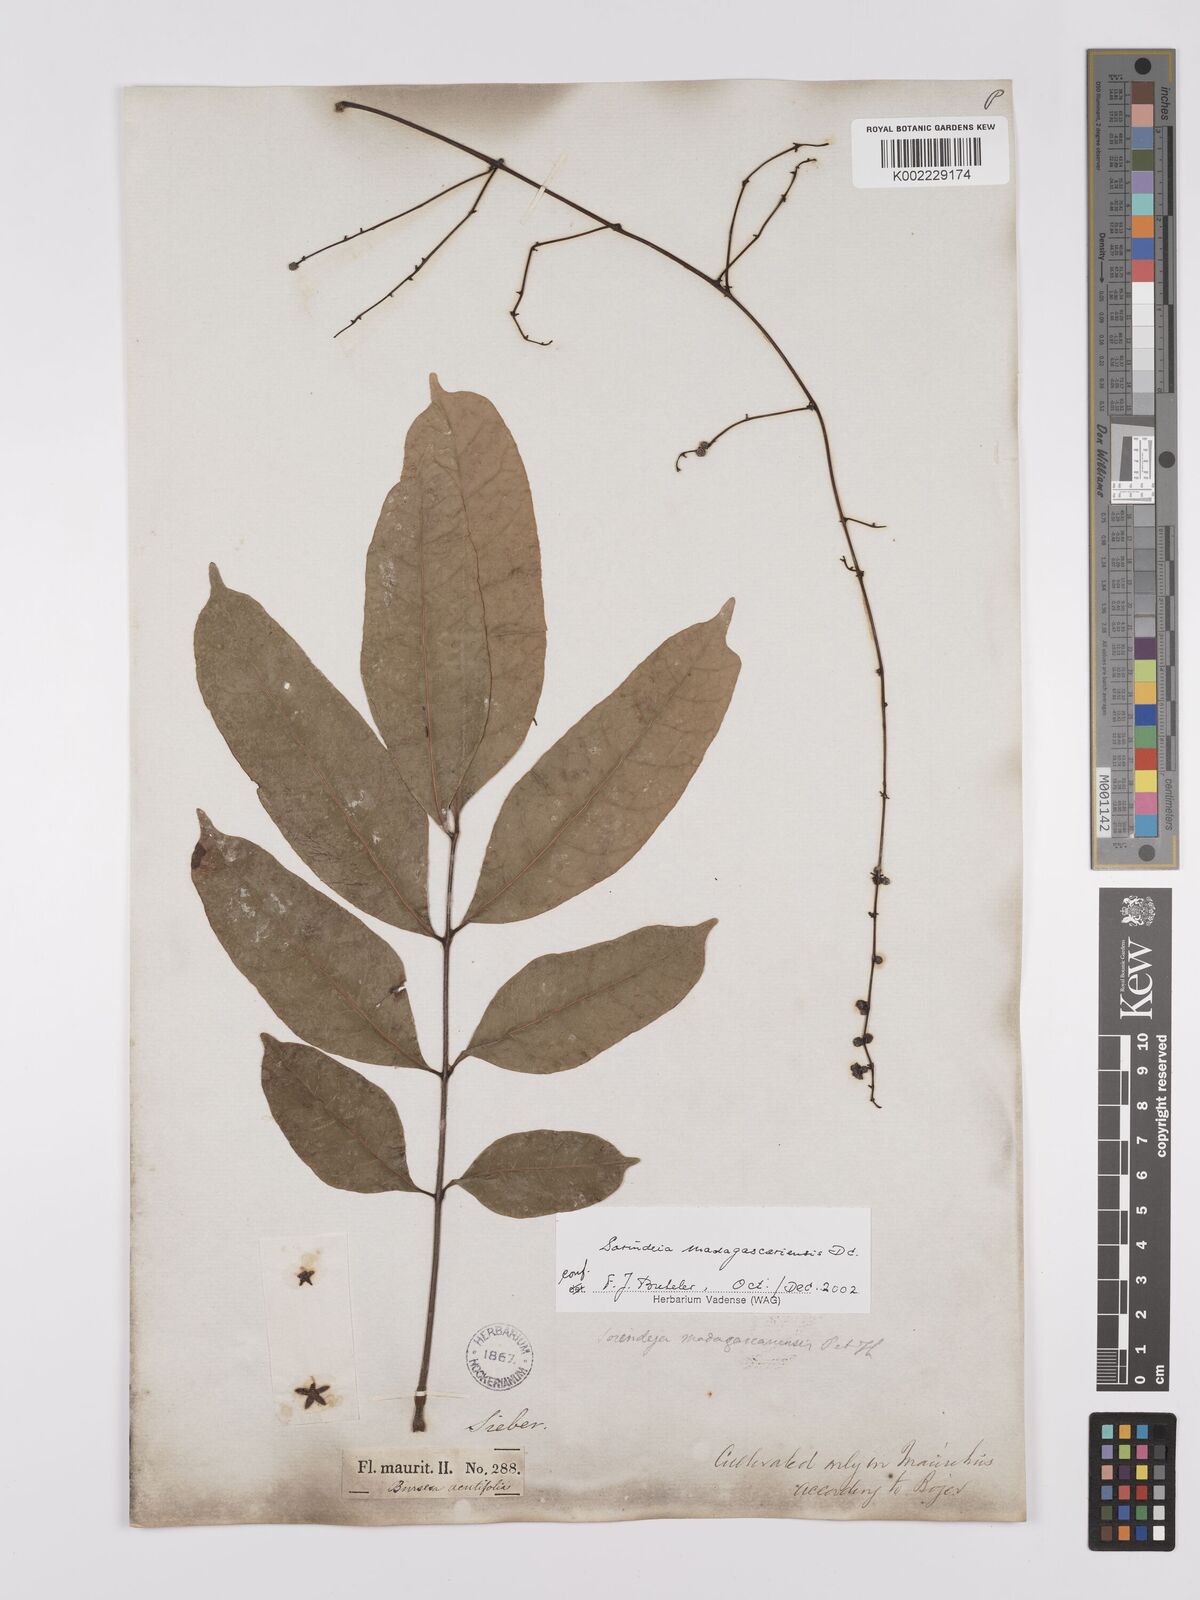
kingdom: Plantae
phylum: Tracheophyta
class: Magnoliopsida
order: Sapindales
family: Anacardiaceae
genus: Sorindeia
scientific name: Sorindeia madagascariensis
